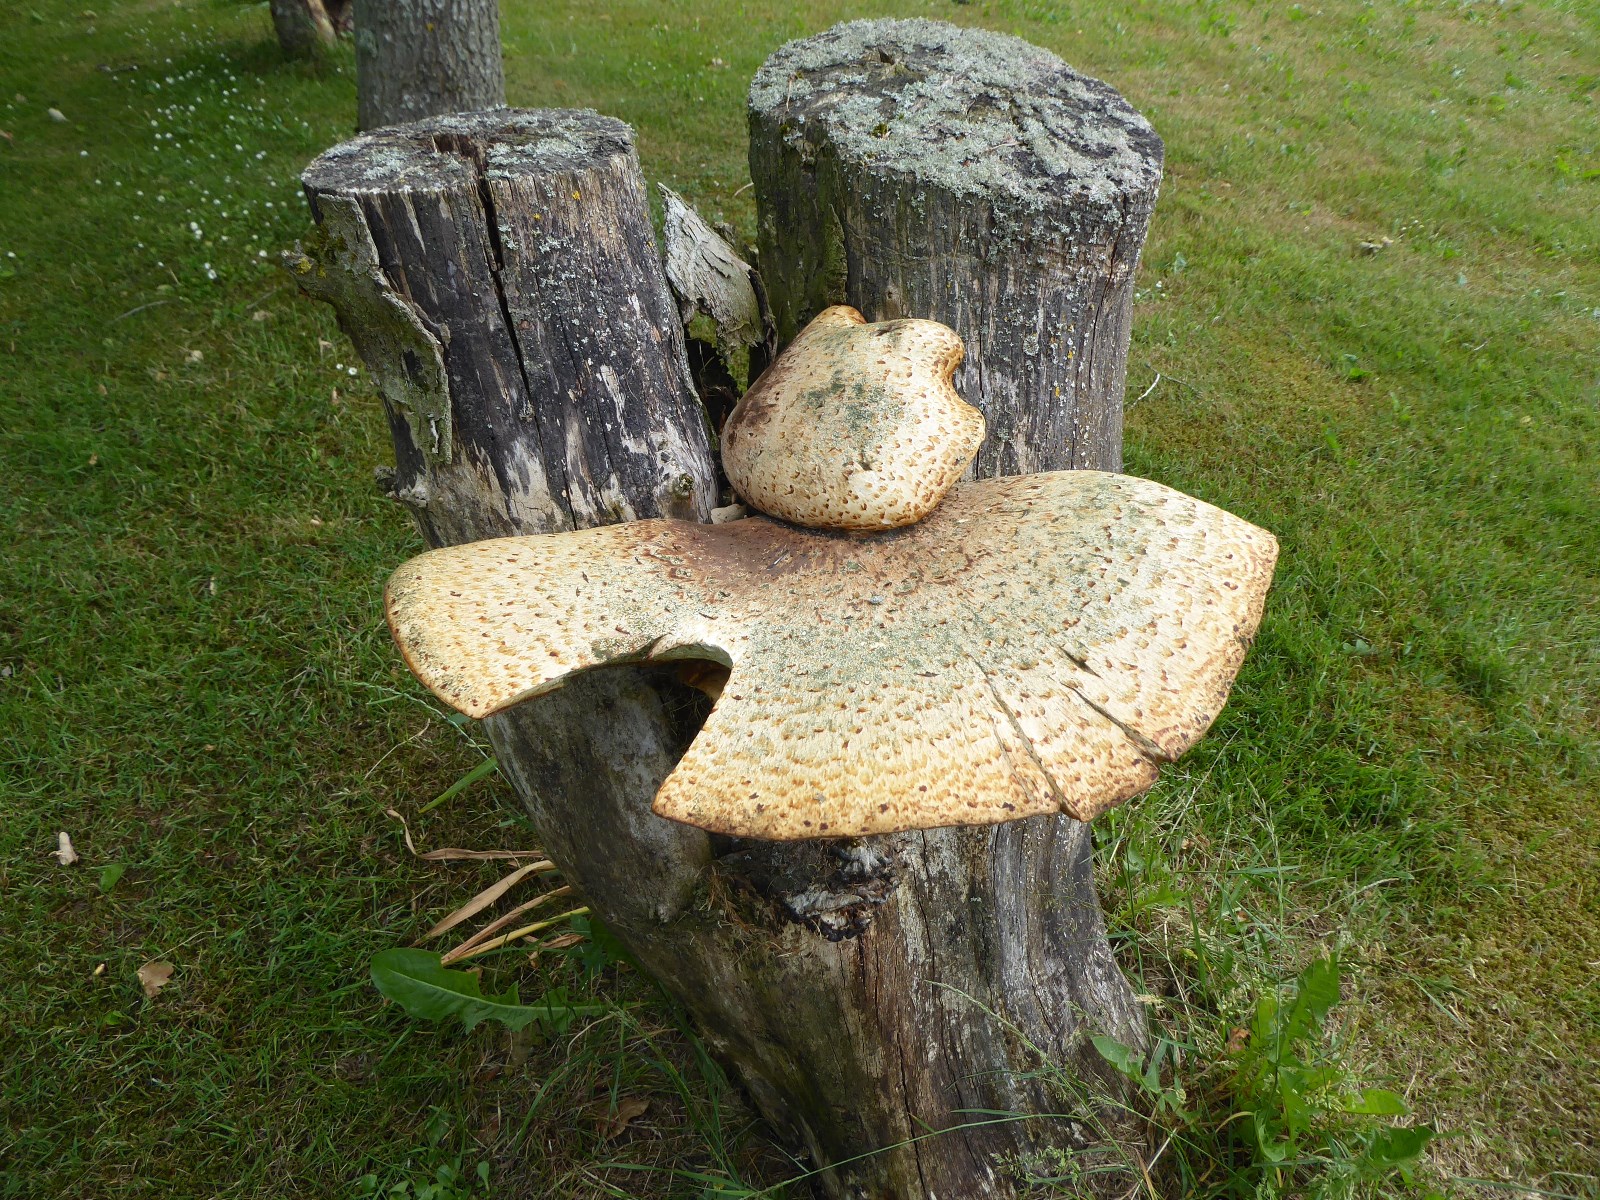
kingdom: Fungi
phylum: Basidiomycota
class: Agaricomycetes
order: Polyporales
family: Polyporaceae
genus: Cerioporus
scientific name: Cerioporus squamosus
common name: skællet stilkporesvamp
